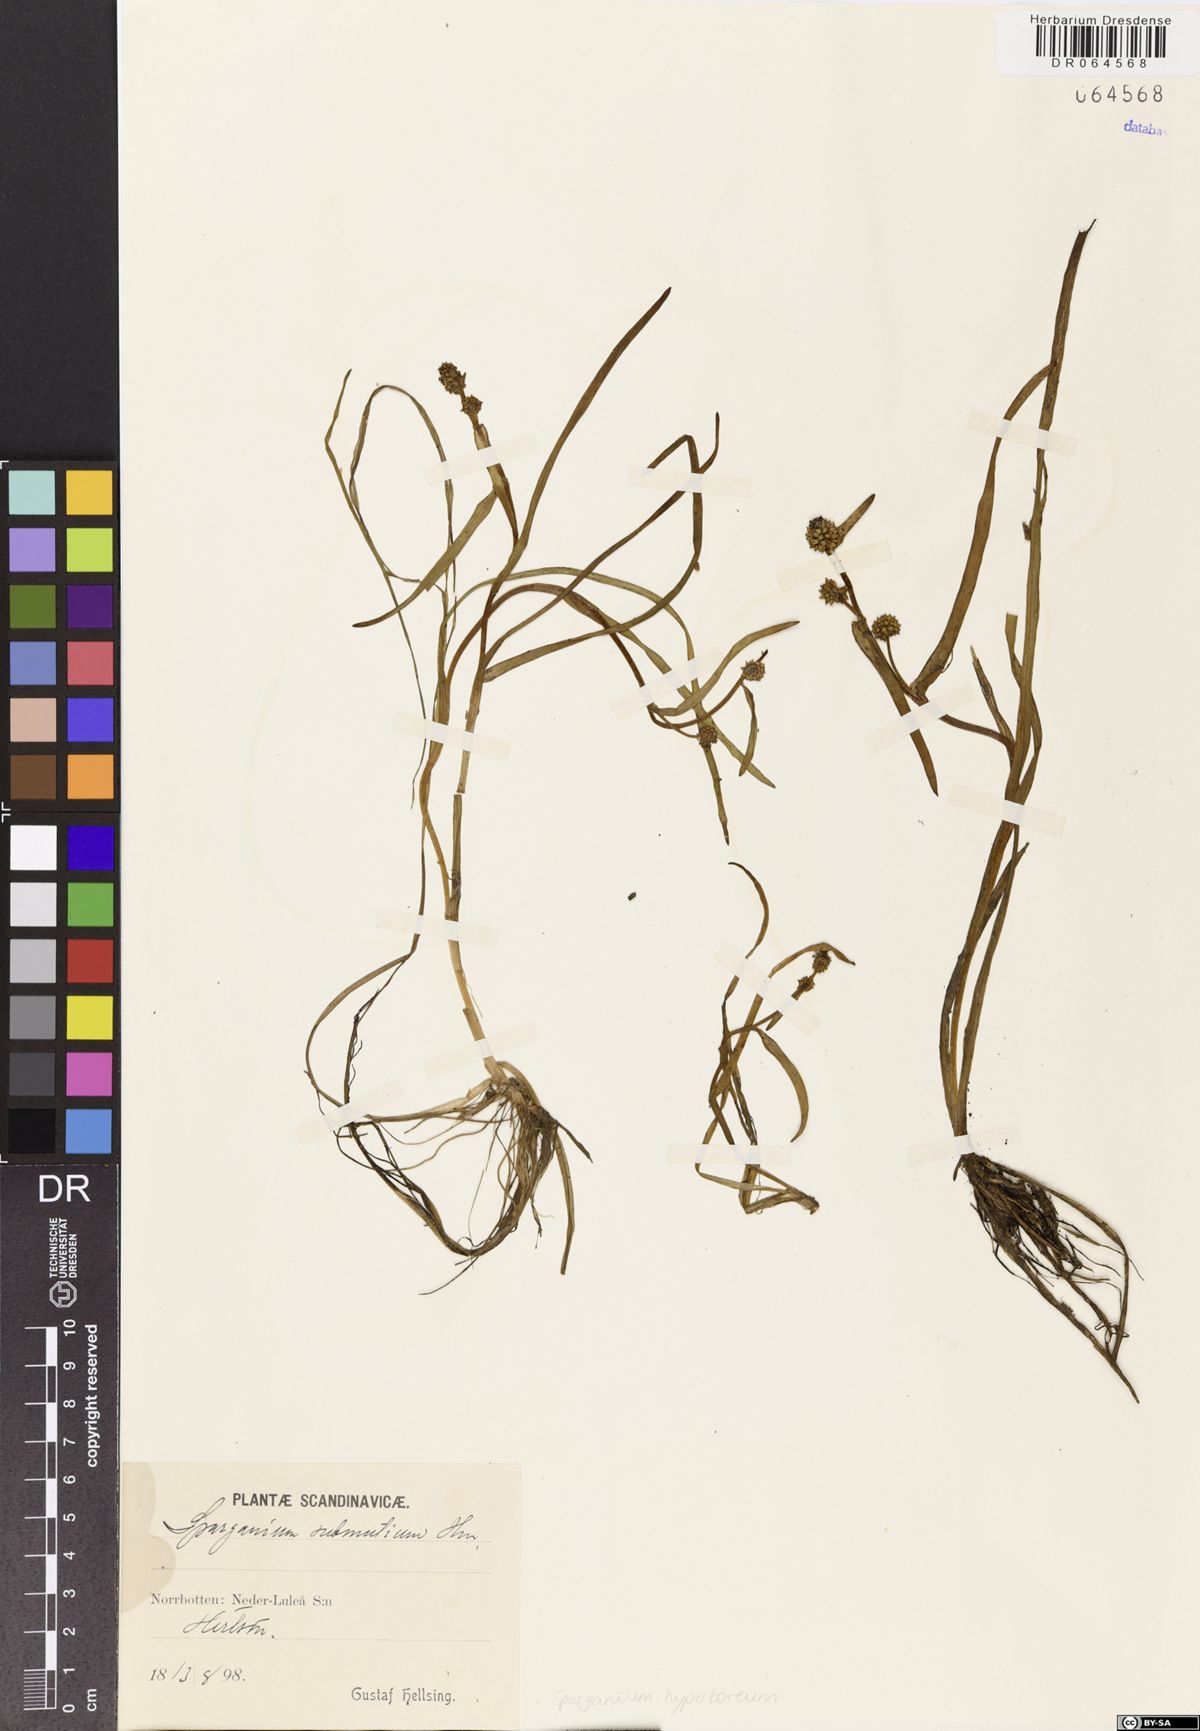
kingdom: Plantae
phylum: Tracheophyta
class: Liliopsida
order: Poales
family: Typhaceae
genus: Sparganium
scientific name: Sparganium hyperboreum
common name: Arctic burreed
